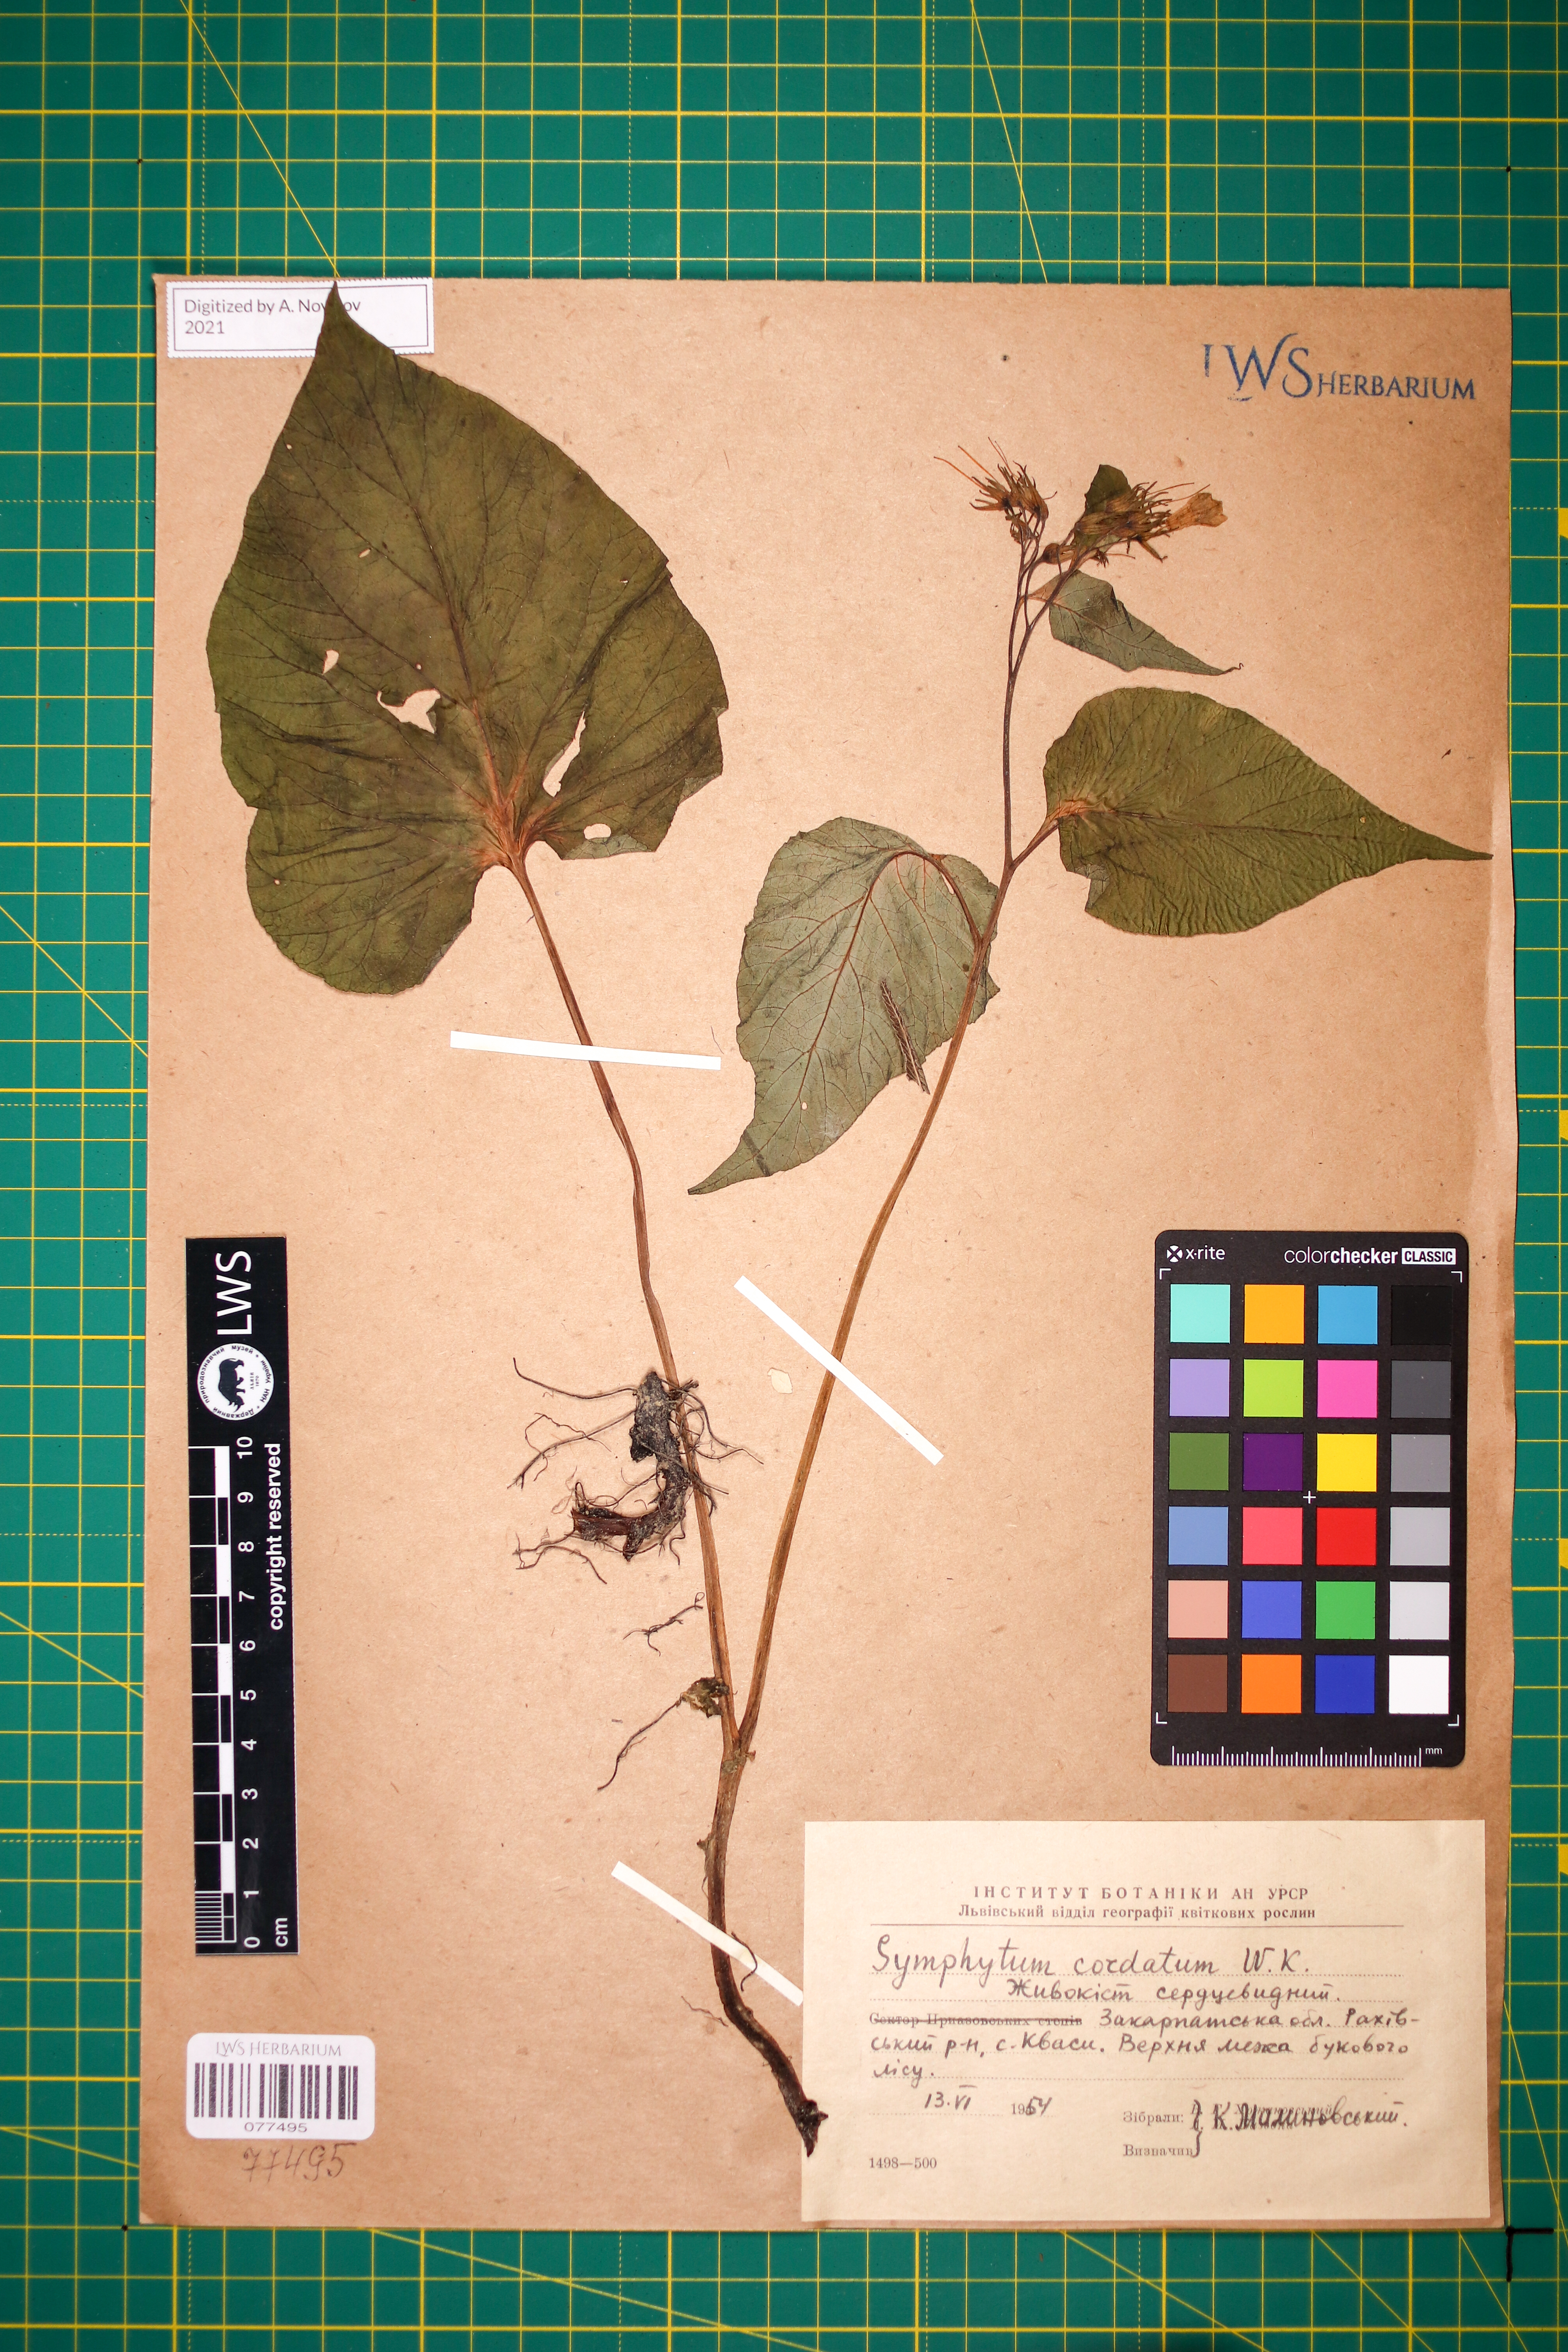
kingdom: Plantae
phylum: Tracheophyta
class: Magnoliopsida
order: Boraginales
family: Boraginaceae
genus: Symphytum
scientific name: Symphytum cordatum
